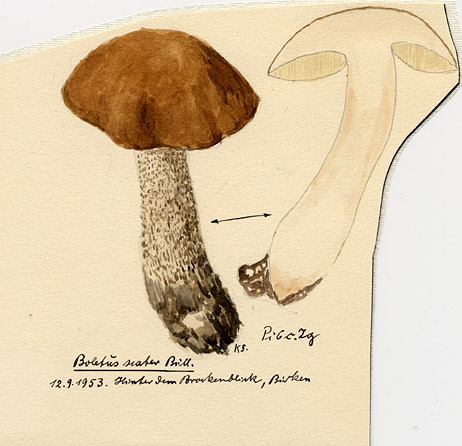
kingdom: Fungi
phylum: Basidiomycota
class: Agaricomycetes
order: Boletales
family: Boletaceae
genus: Leccinum
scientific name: Leccinum scabrum
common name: Blushing bolete
